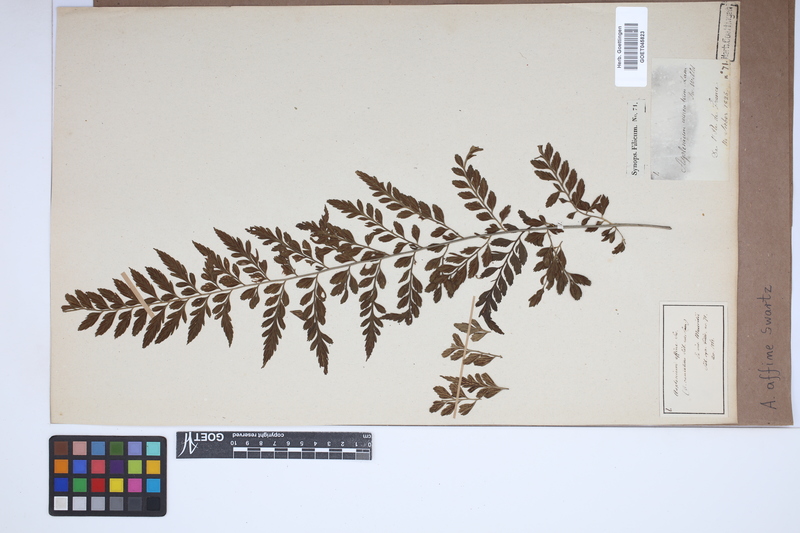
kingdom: Plantae
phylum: Tracheophyta
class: Polypodiopsida
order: Polypodiales
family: Aspleniaceae
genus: Asplenium
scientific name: Asplenium affine
